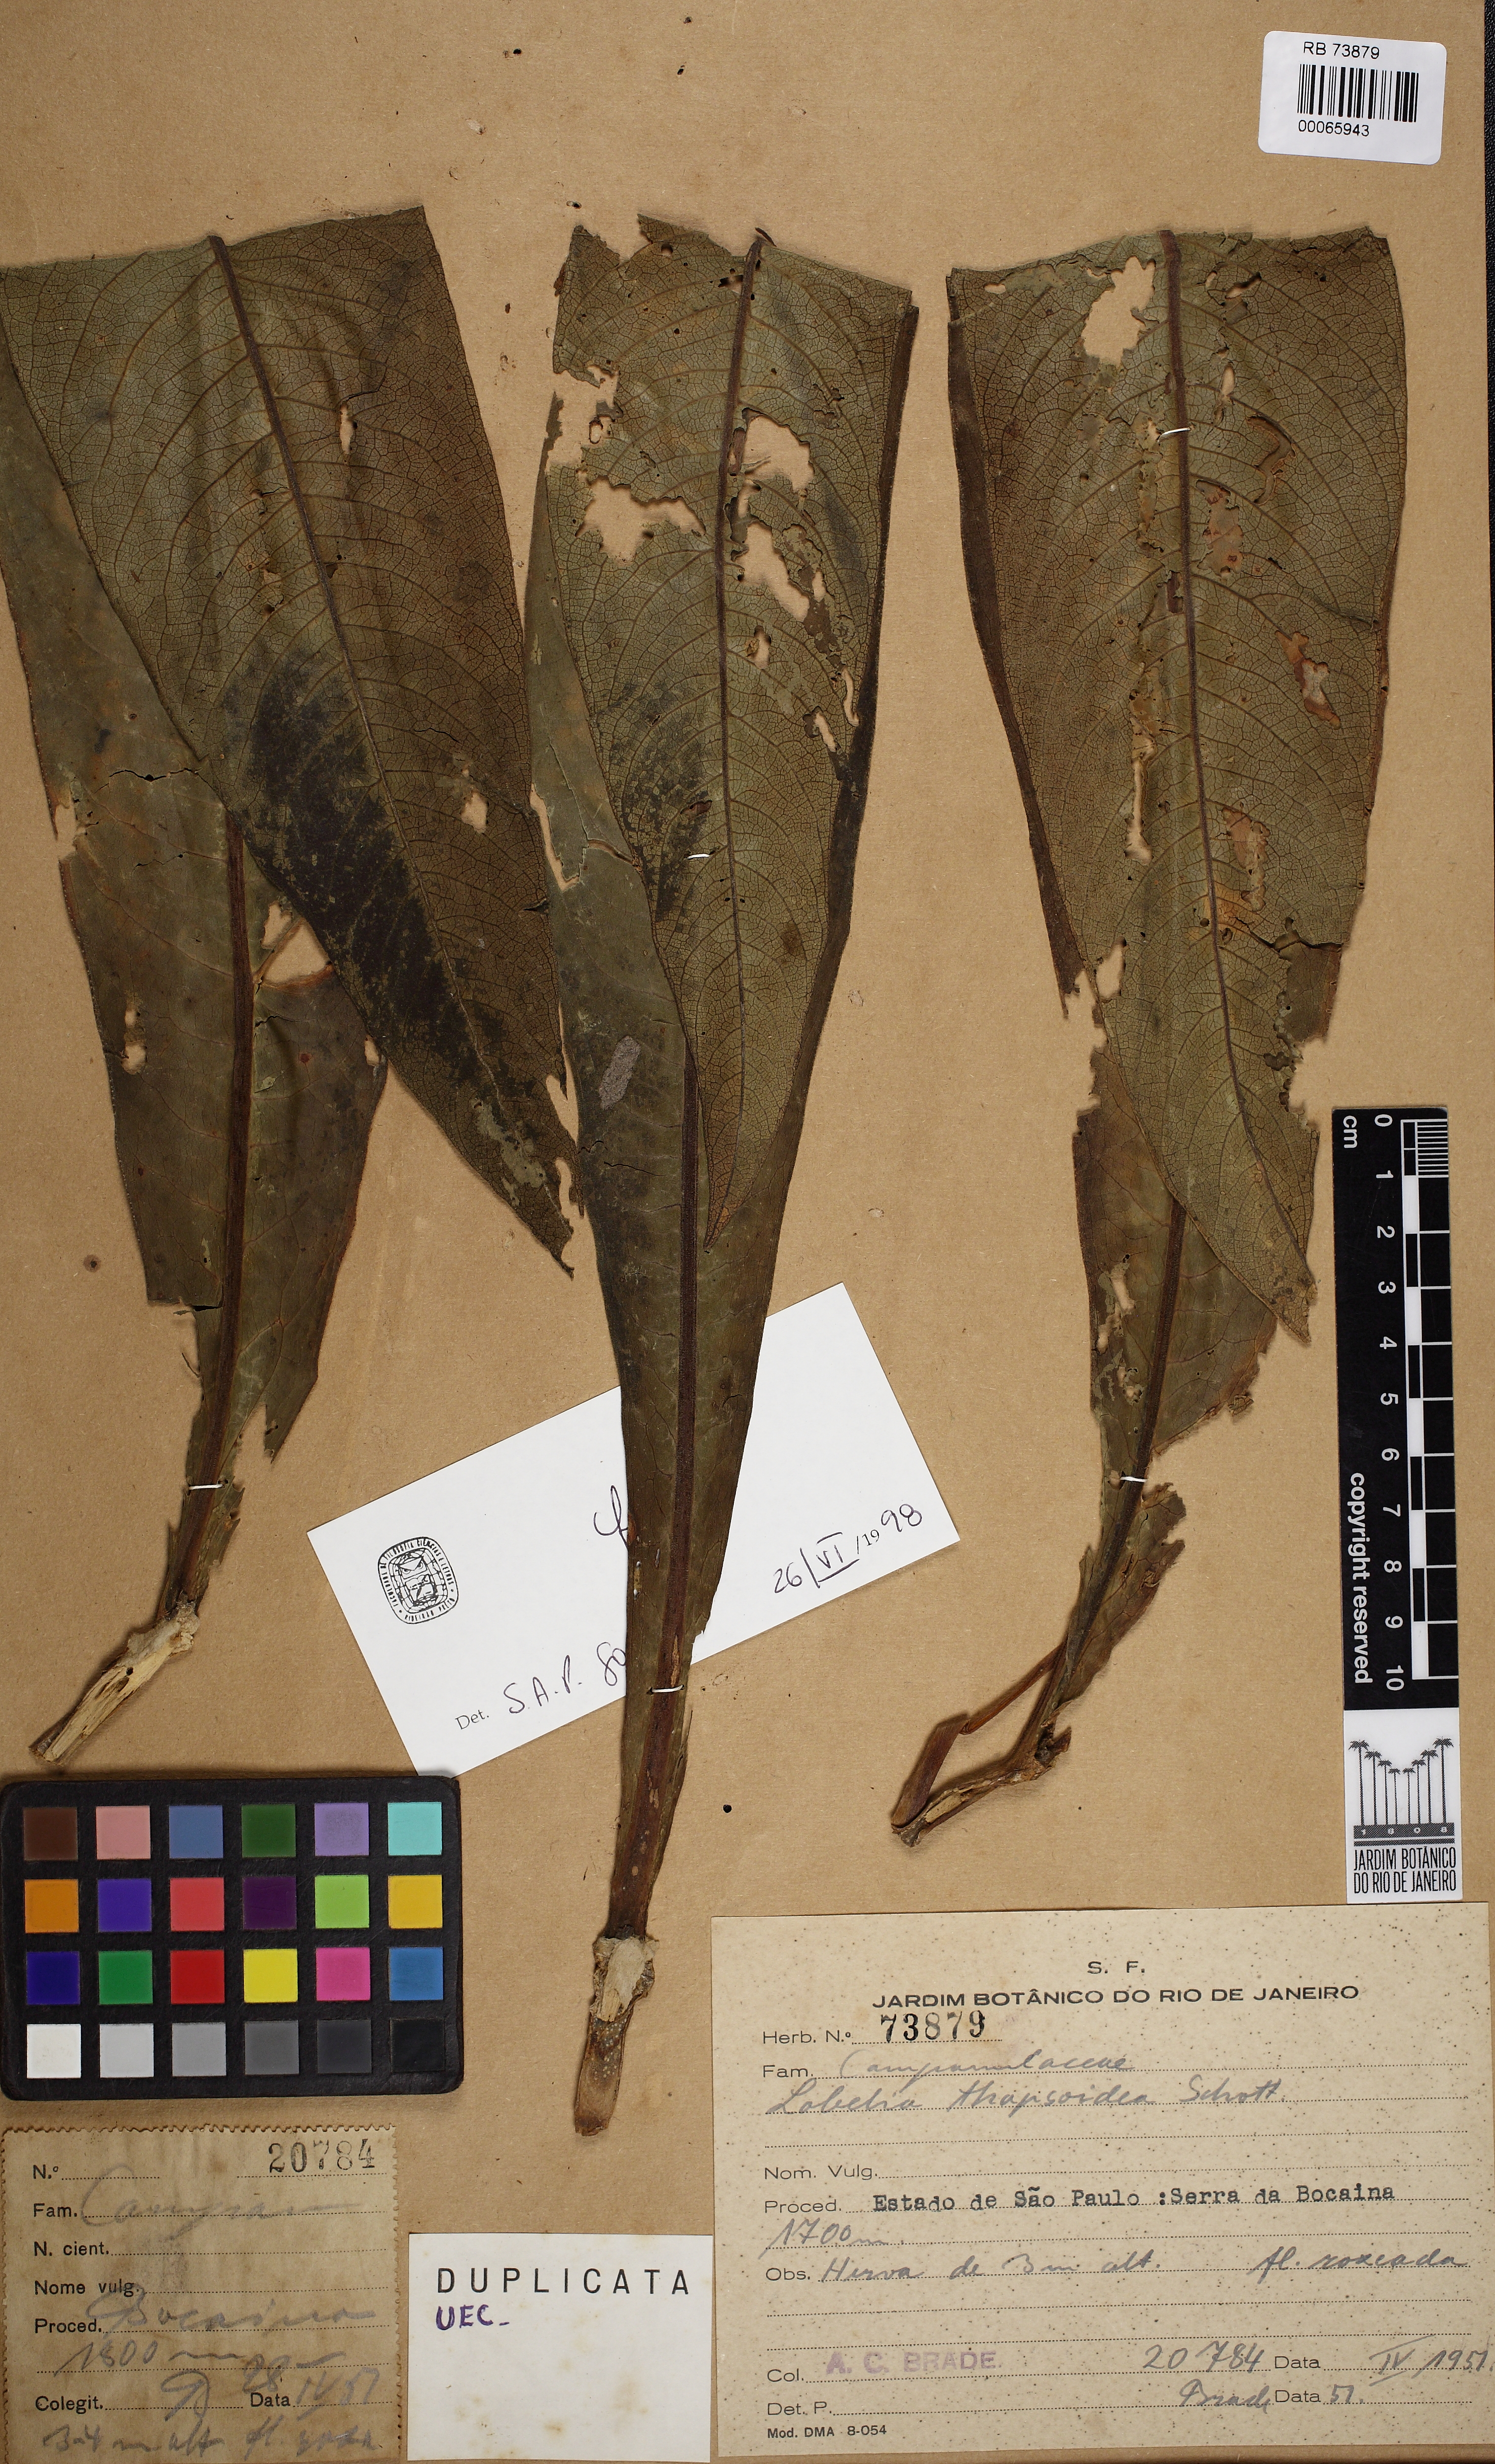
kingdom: Plantae
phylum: Tracheophyta
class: Magnoliopsida
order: Asterales
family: Campanulaceae
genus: Lobelia
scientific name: Lobelia thapsoidea
